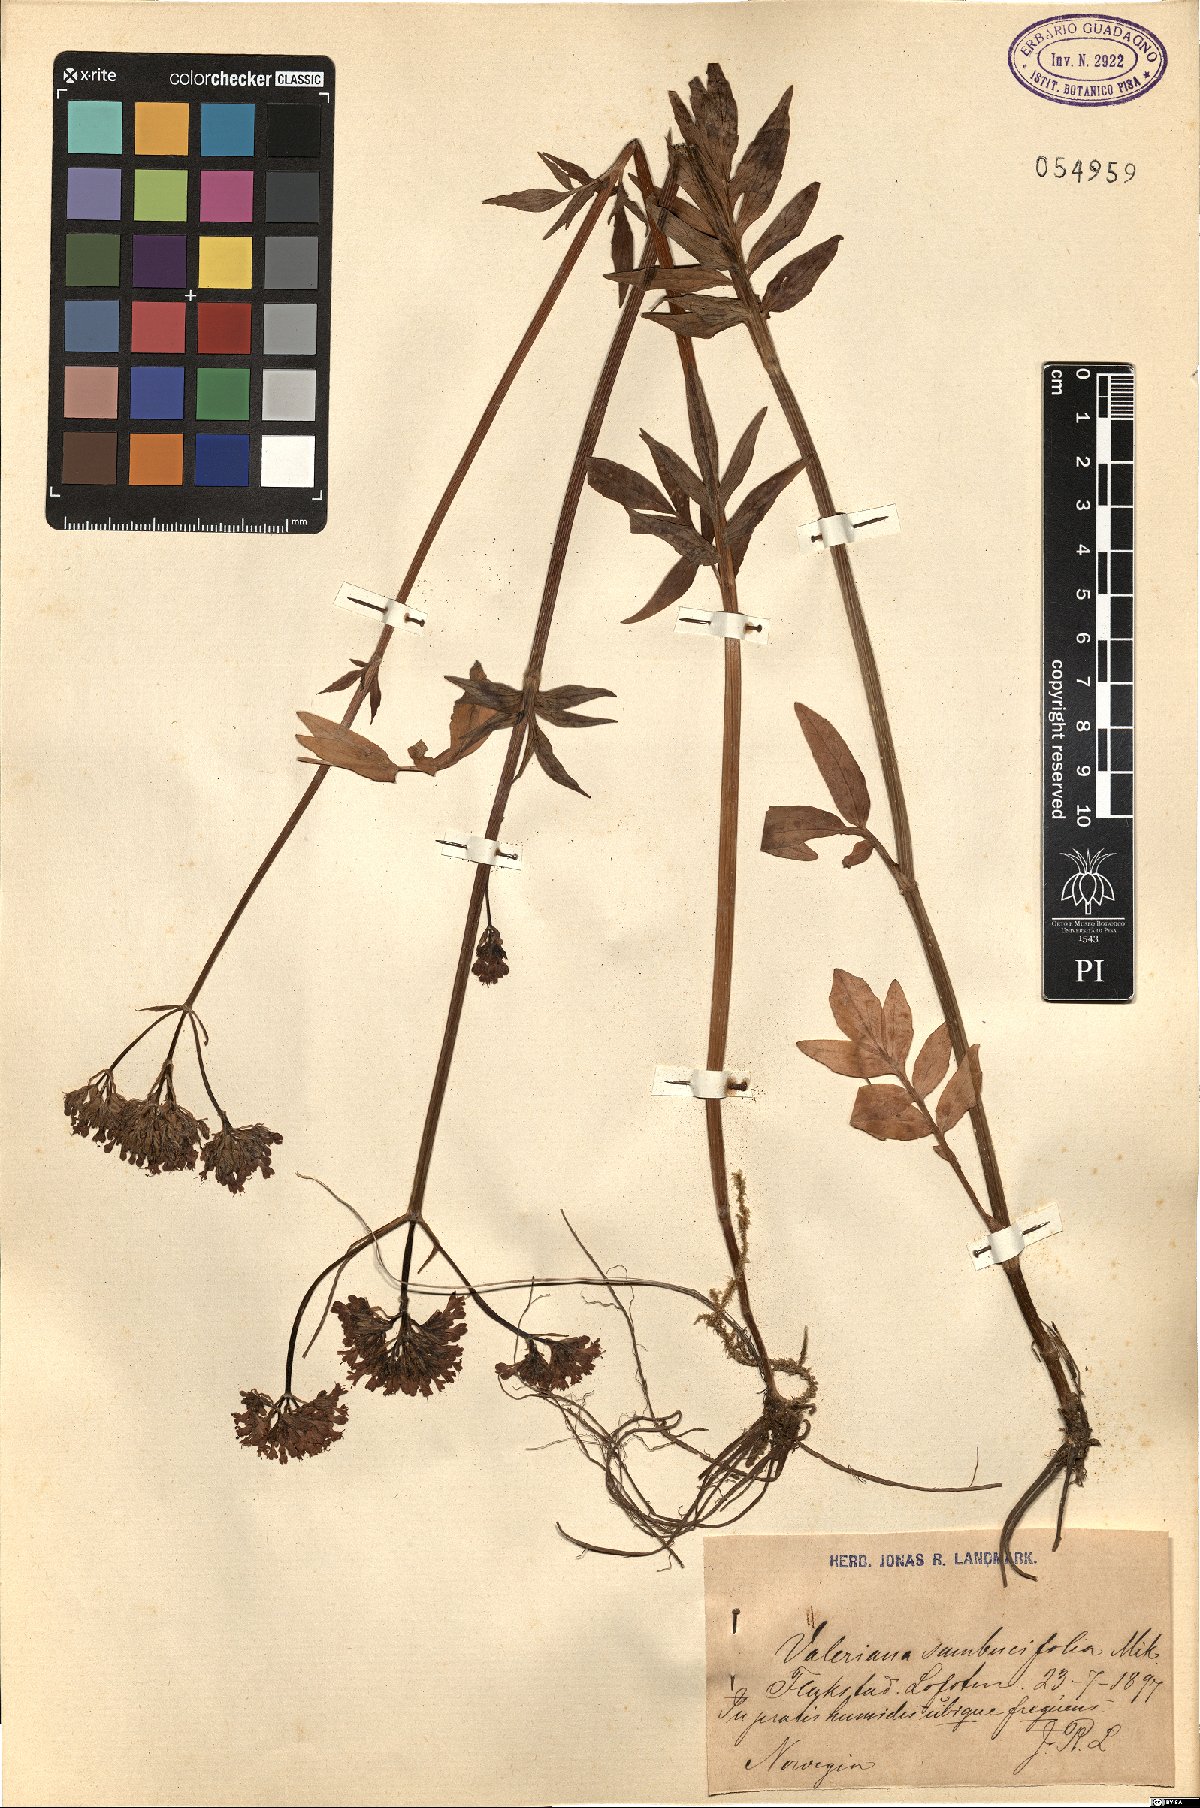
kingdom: Plantae
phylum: Tracheophyta
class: Magnoliopsida
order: Dipsacales
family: Caprifoliaceae
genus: Valeriana
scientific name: Valeriana excelsa
